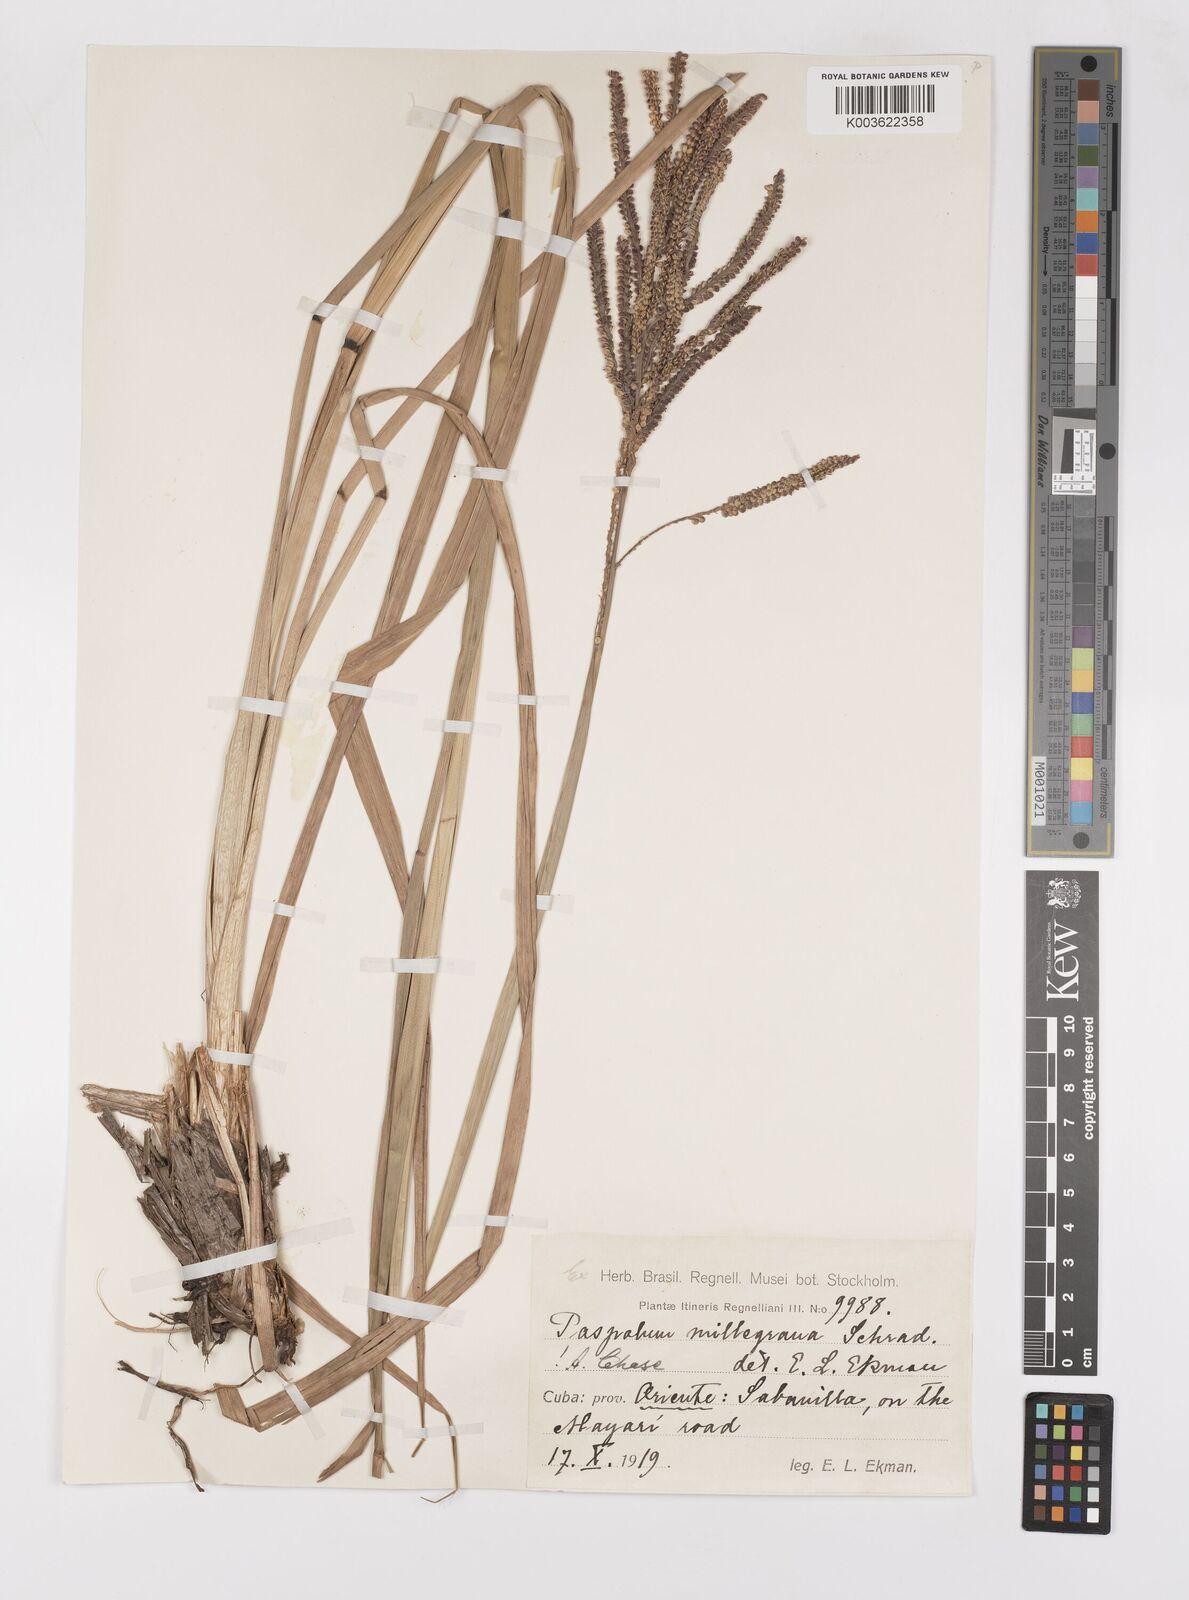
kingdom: Plantae
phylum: Tracheophyta
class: Liliopsida
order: Poales
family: Poaceae
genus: Paspalum
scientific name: Paspalum millegranum
